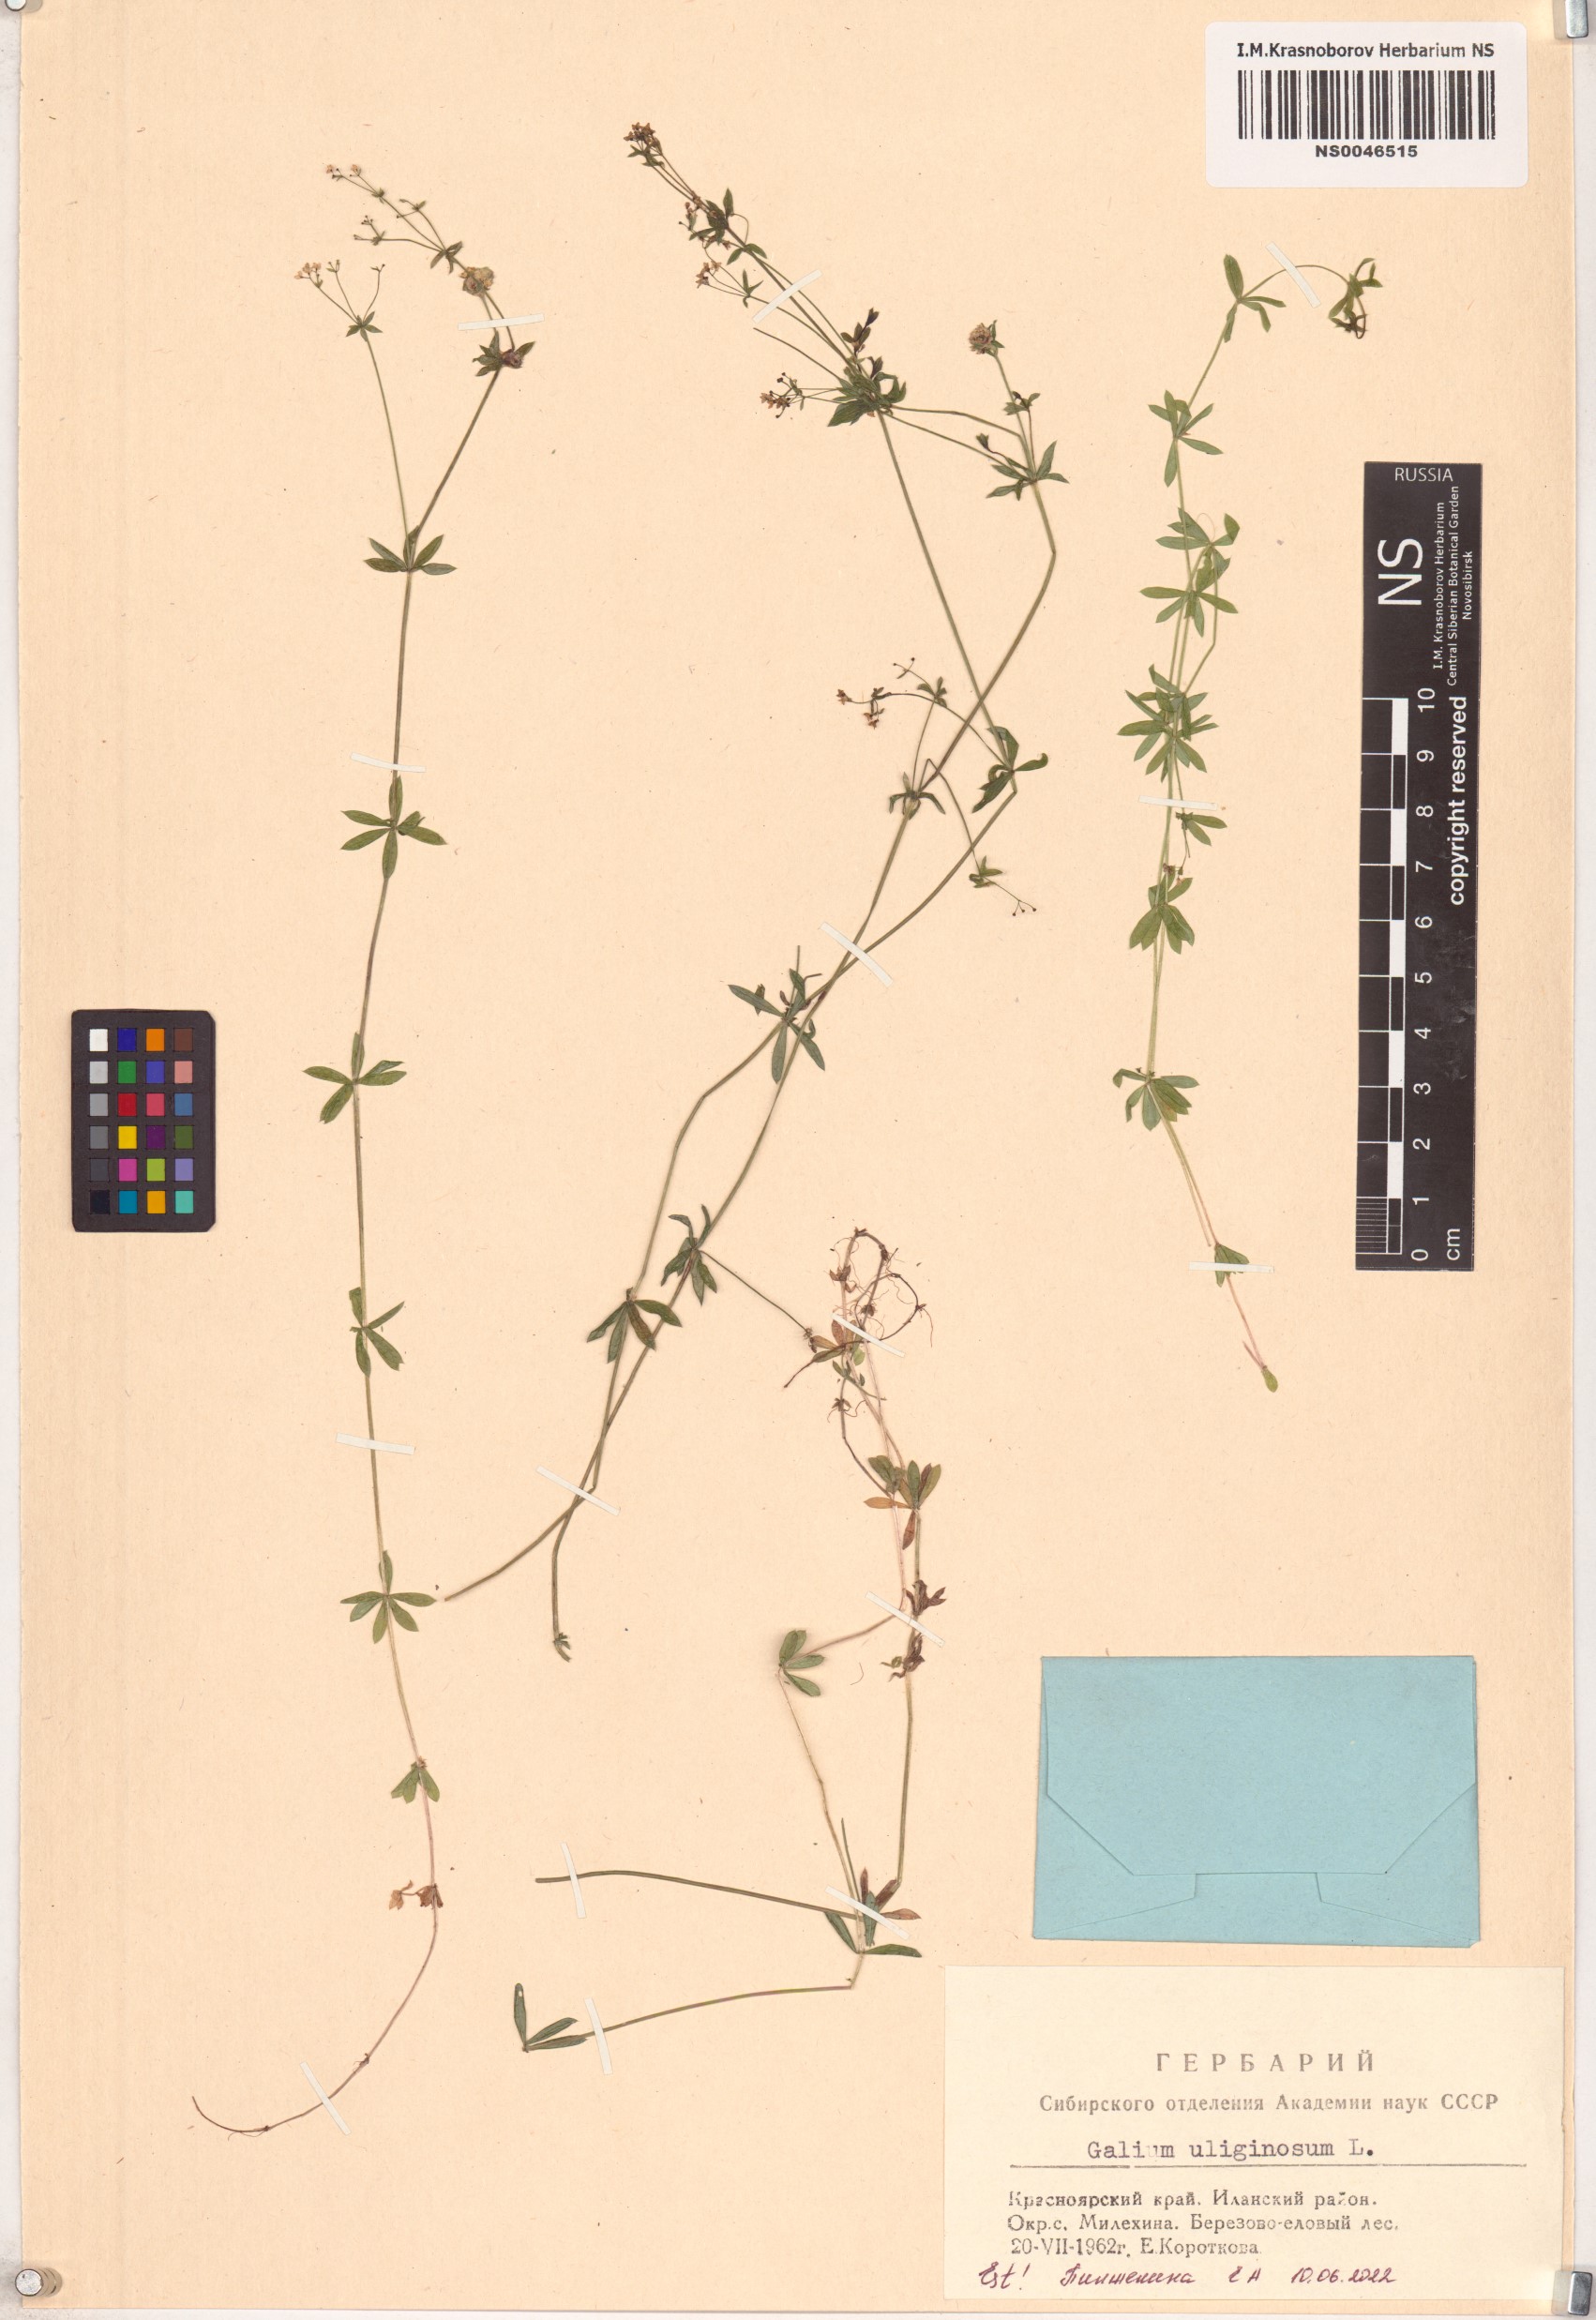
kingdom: Plantae
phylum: Tracheophyta
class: Magnoliopsida
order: Gentianales
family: Rubiaceae
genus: Galium
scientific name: Galium uliginosum
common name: Fen bedstraw
